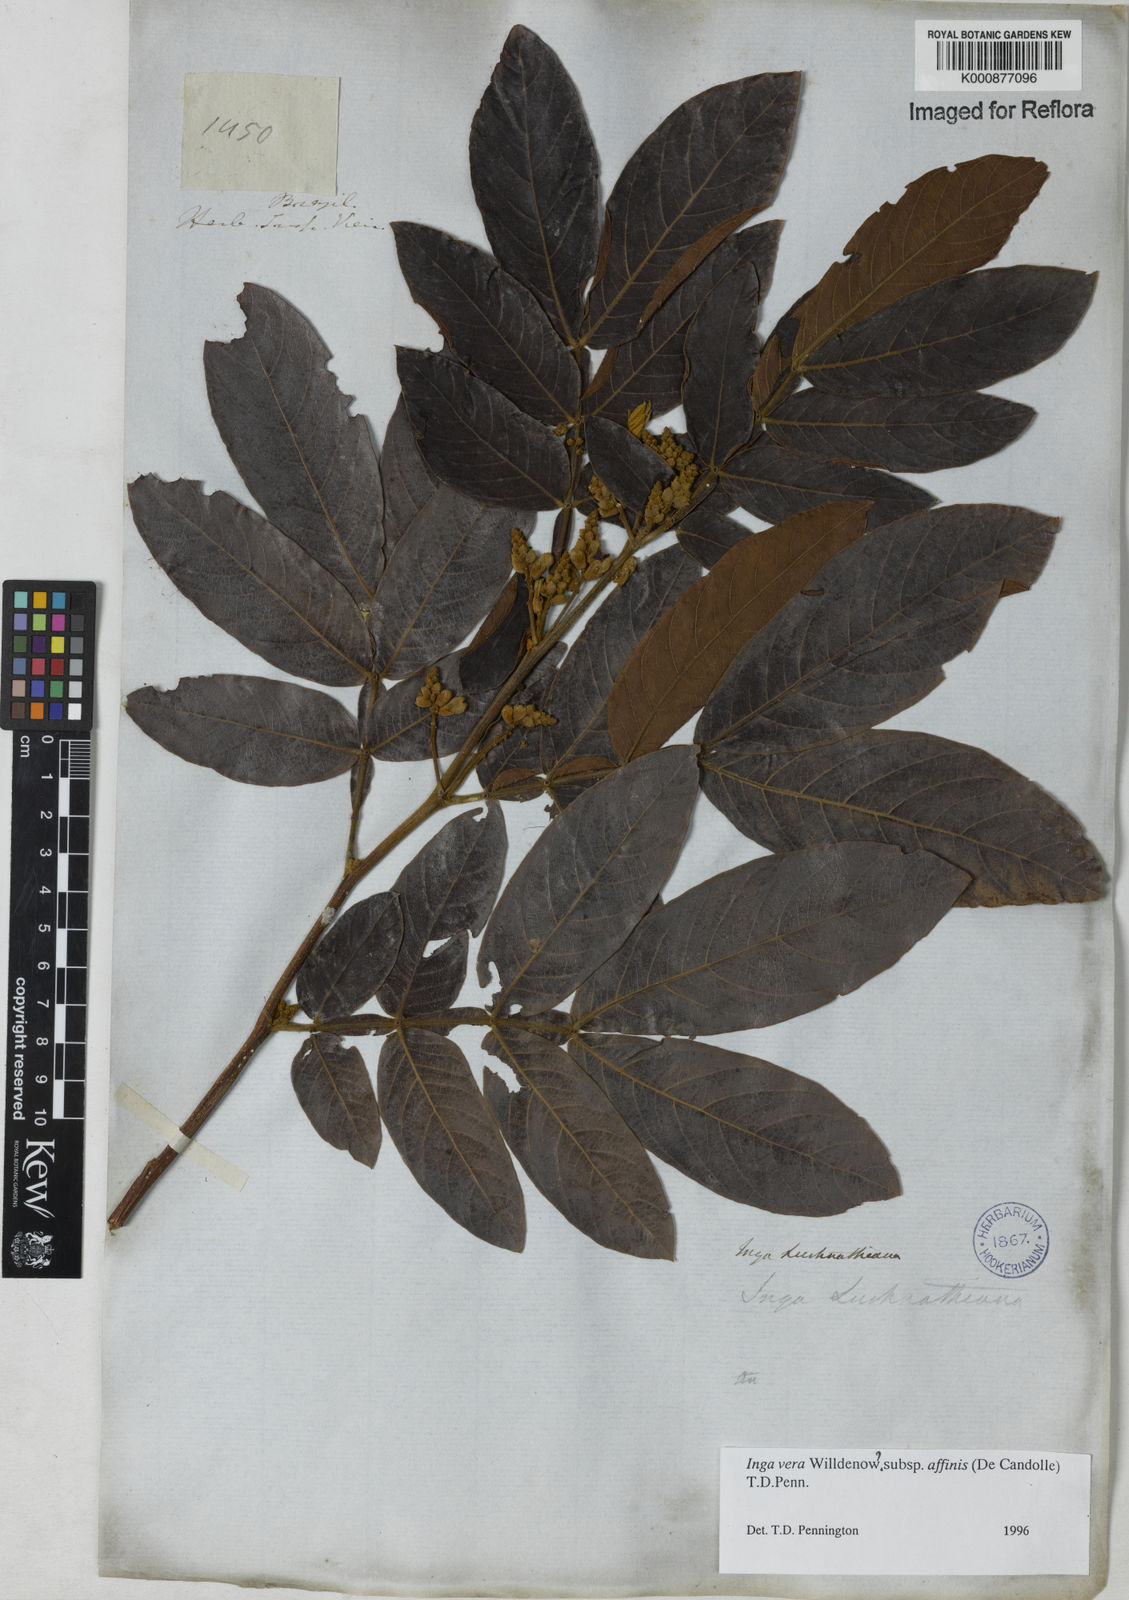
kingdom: Plantae
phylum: Tracheophyta
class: Magnoliopsida
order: Fabales
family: Fabaceae
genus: Inga
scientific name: Inga affinis
